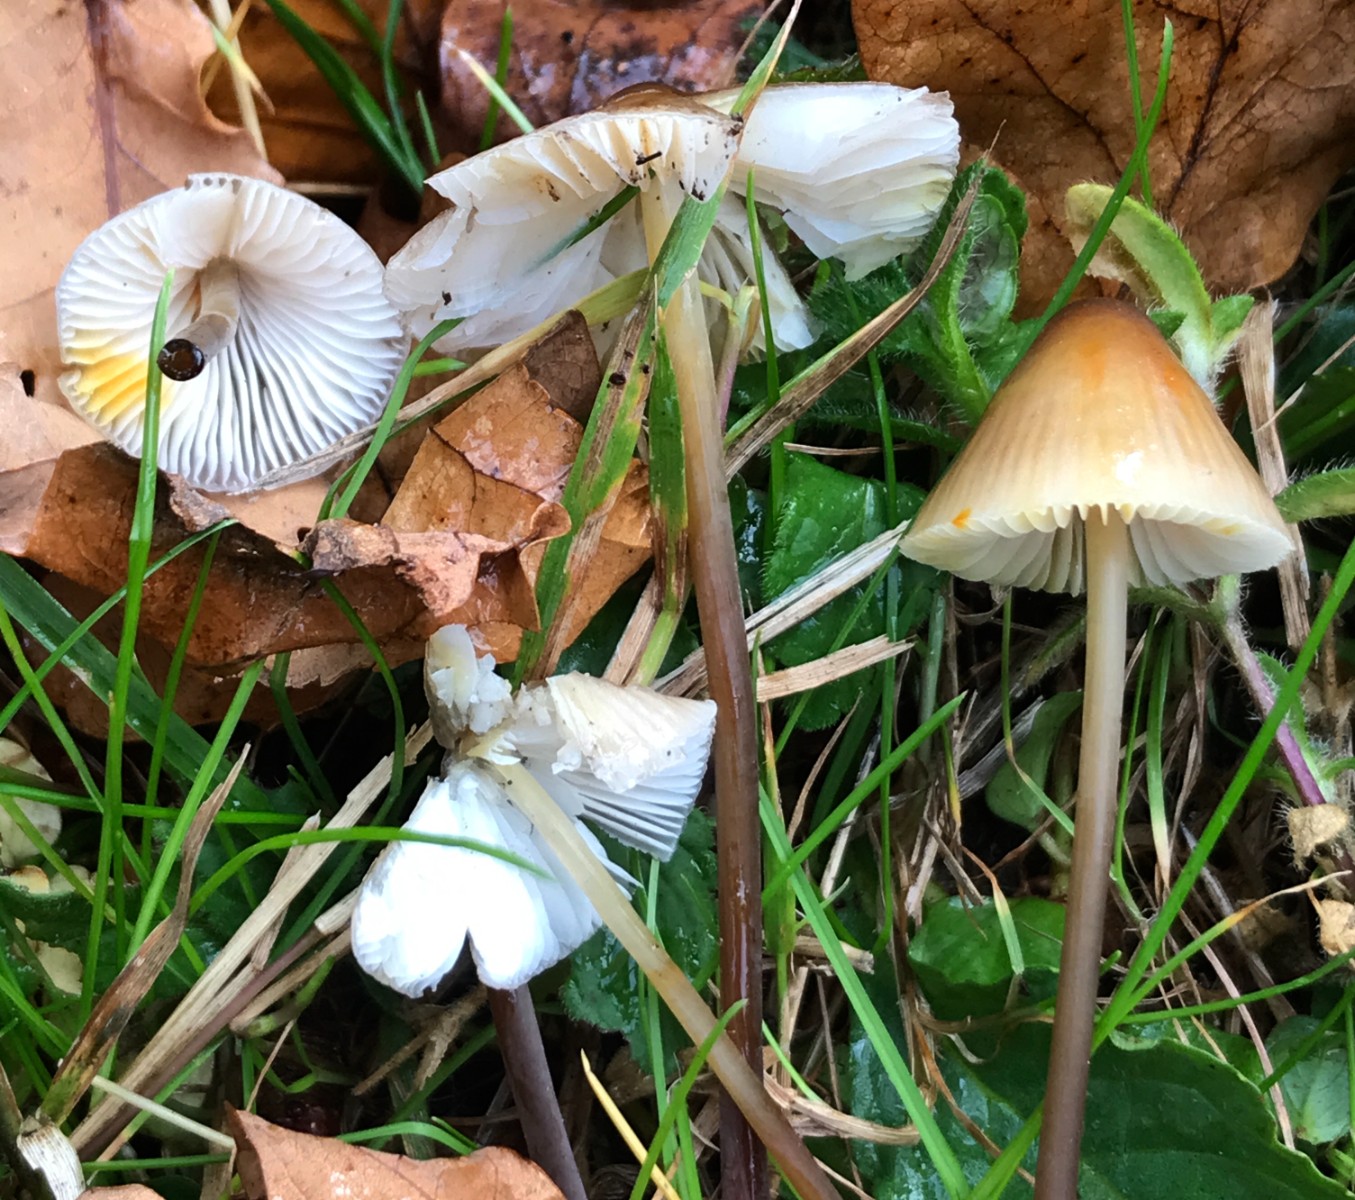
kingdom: Fungi
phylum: Basidiomycota
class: Agaricomycetes
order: Agaricales
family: Mycenaceae
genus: Mycena
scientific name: Mycena crocata
